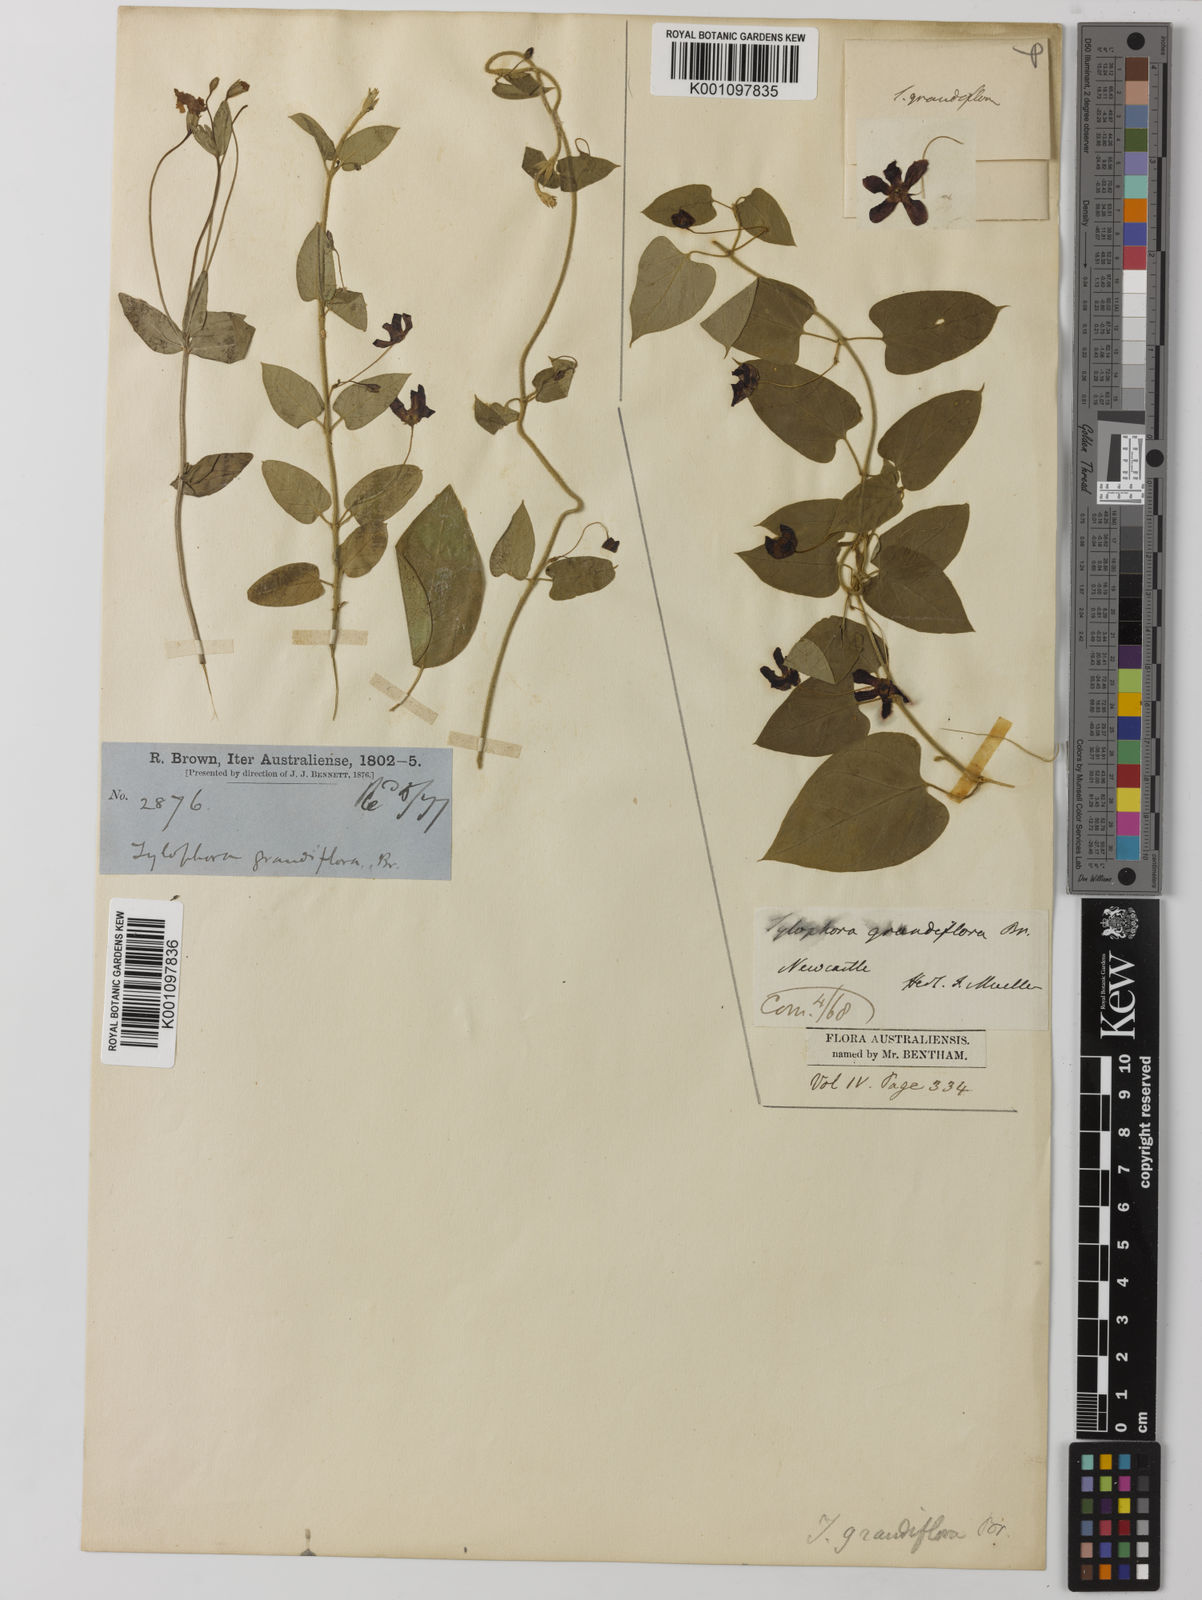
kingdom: Plantae
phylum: Tracheophyta
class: Magnoliopsida
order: Gentianales
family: Apocynaceae
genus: Vincetoxicum
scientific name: Vincetoxicum grandiflorum
